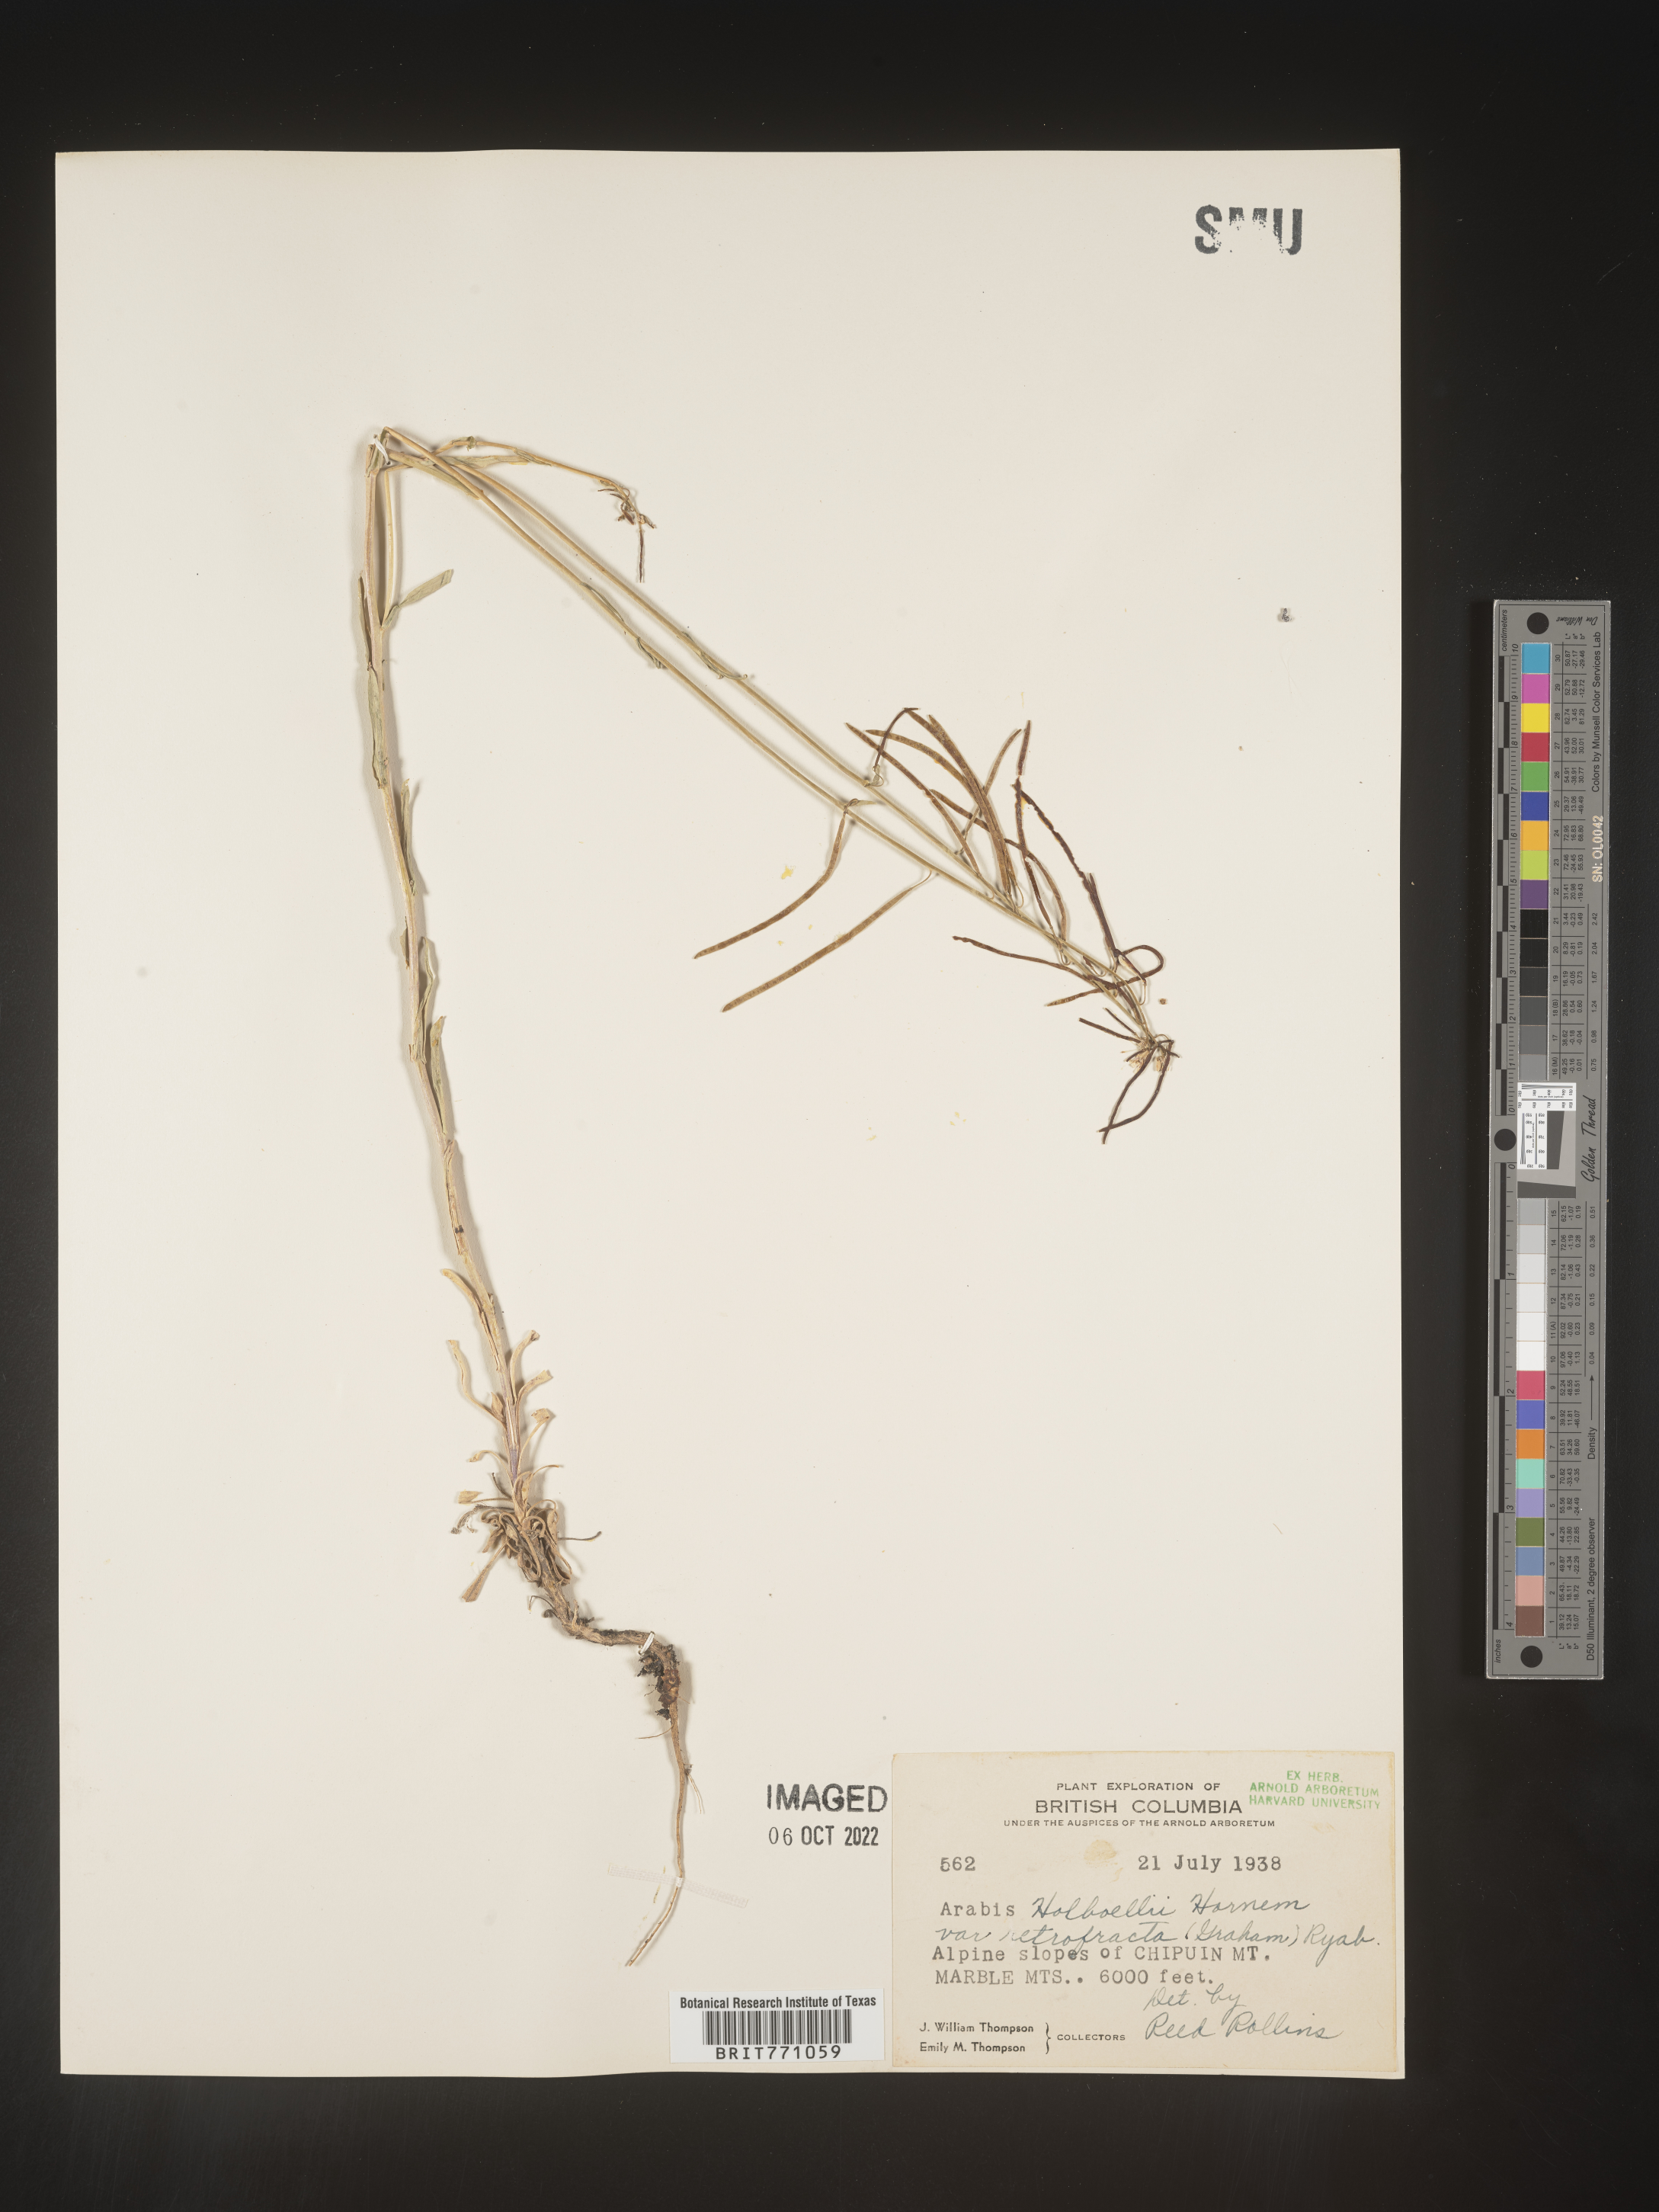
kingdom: Plantae
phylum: Tracheophyta
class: Magnoliopsida
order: Brassicales
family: Brassicaceae
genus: Boechera
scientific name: Boechera holboellii
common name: Holboell's rockcress
